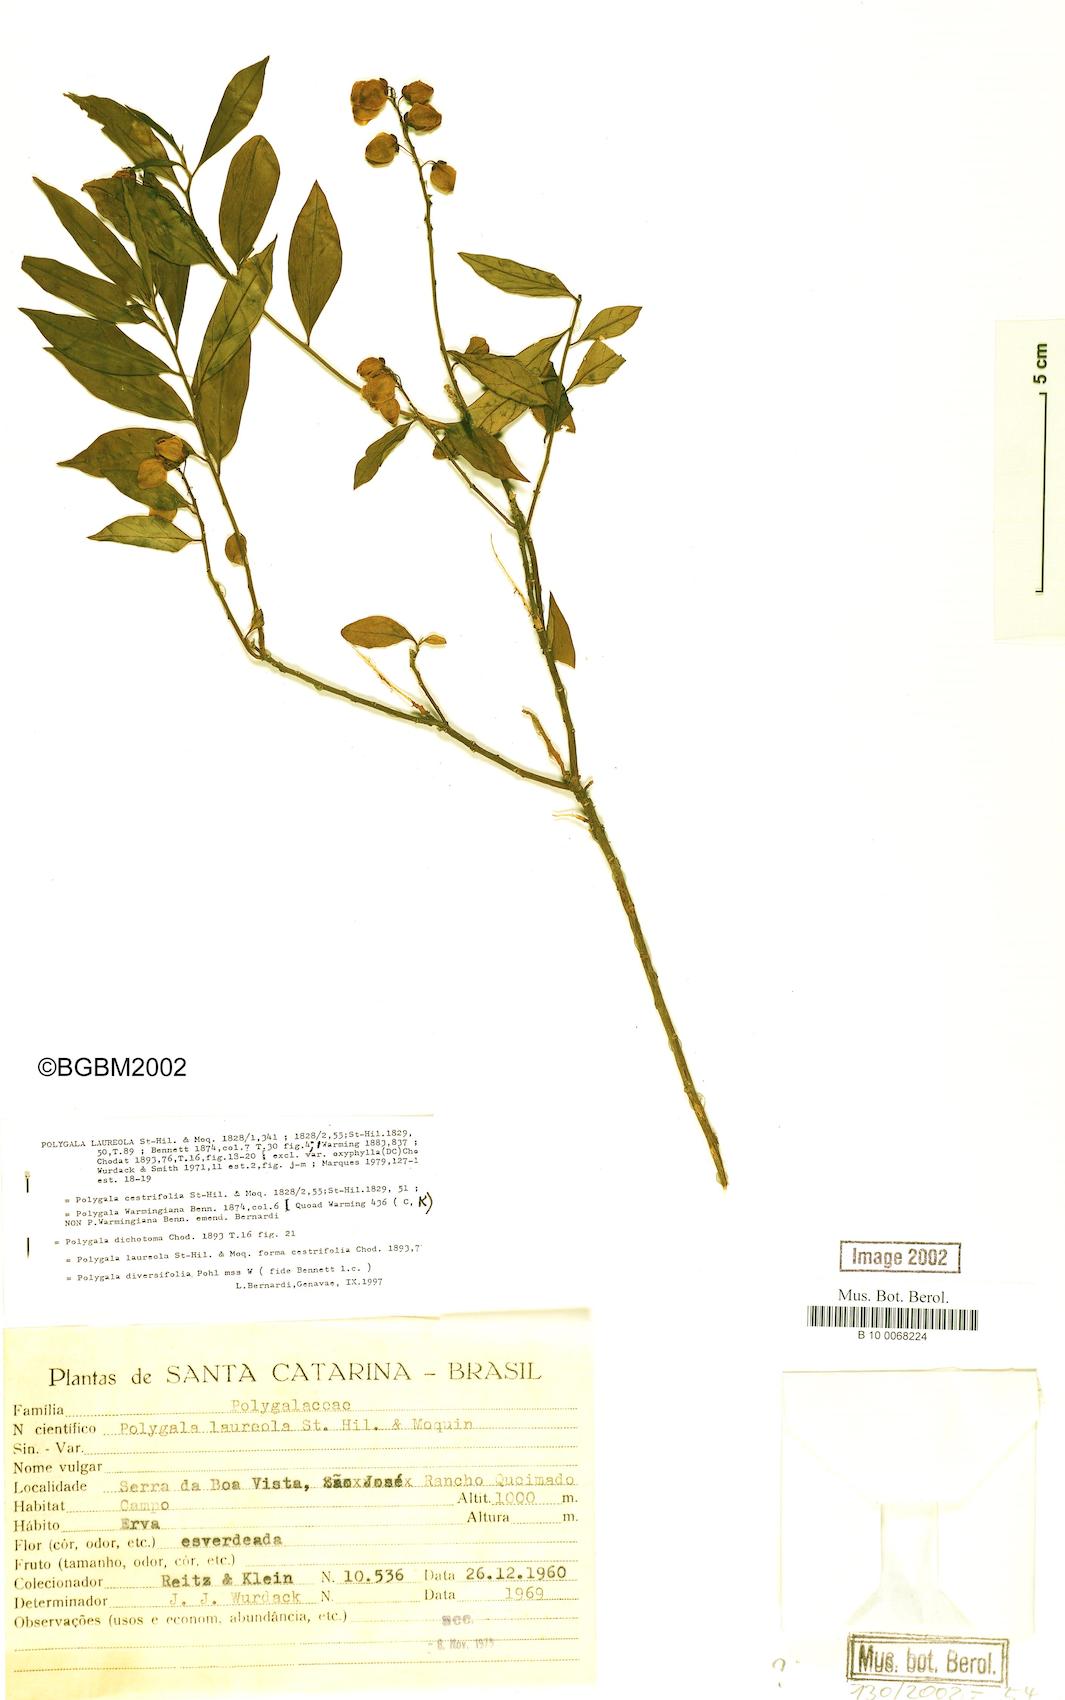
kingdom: Plantae
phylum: Tracheophyta
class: Magnoliopsida
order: Fabales
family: Polygalaceae
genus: Caamembeca
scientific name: Caamembeca salicifolia
